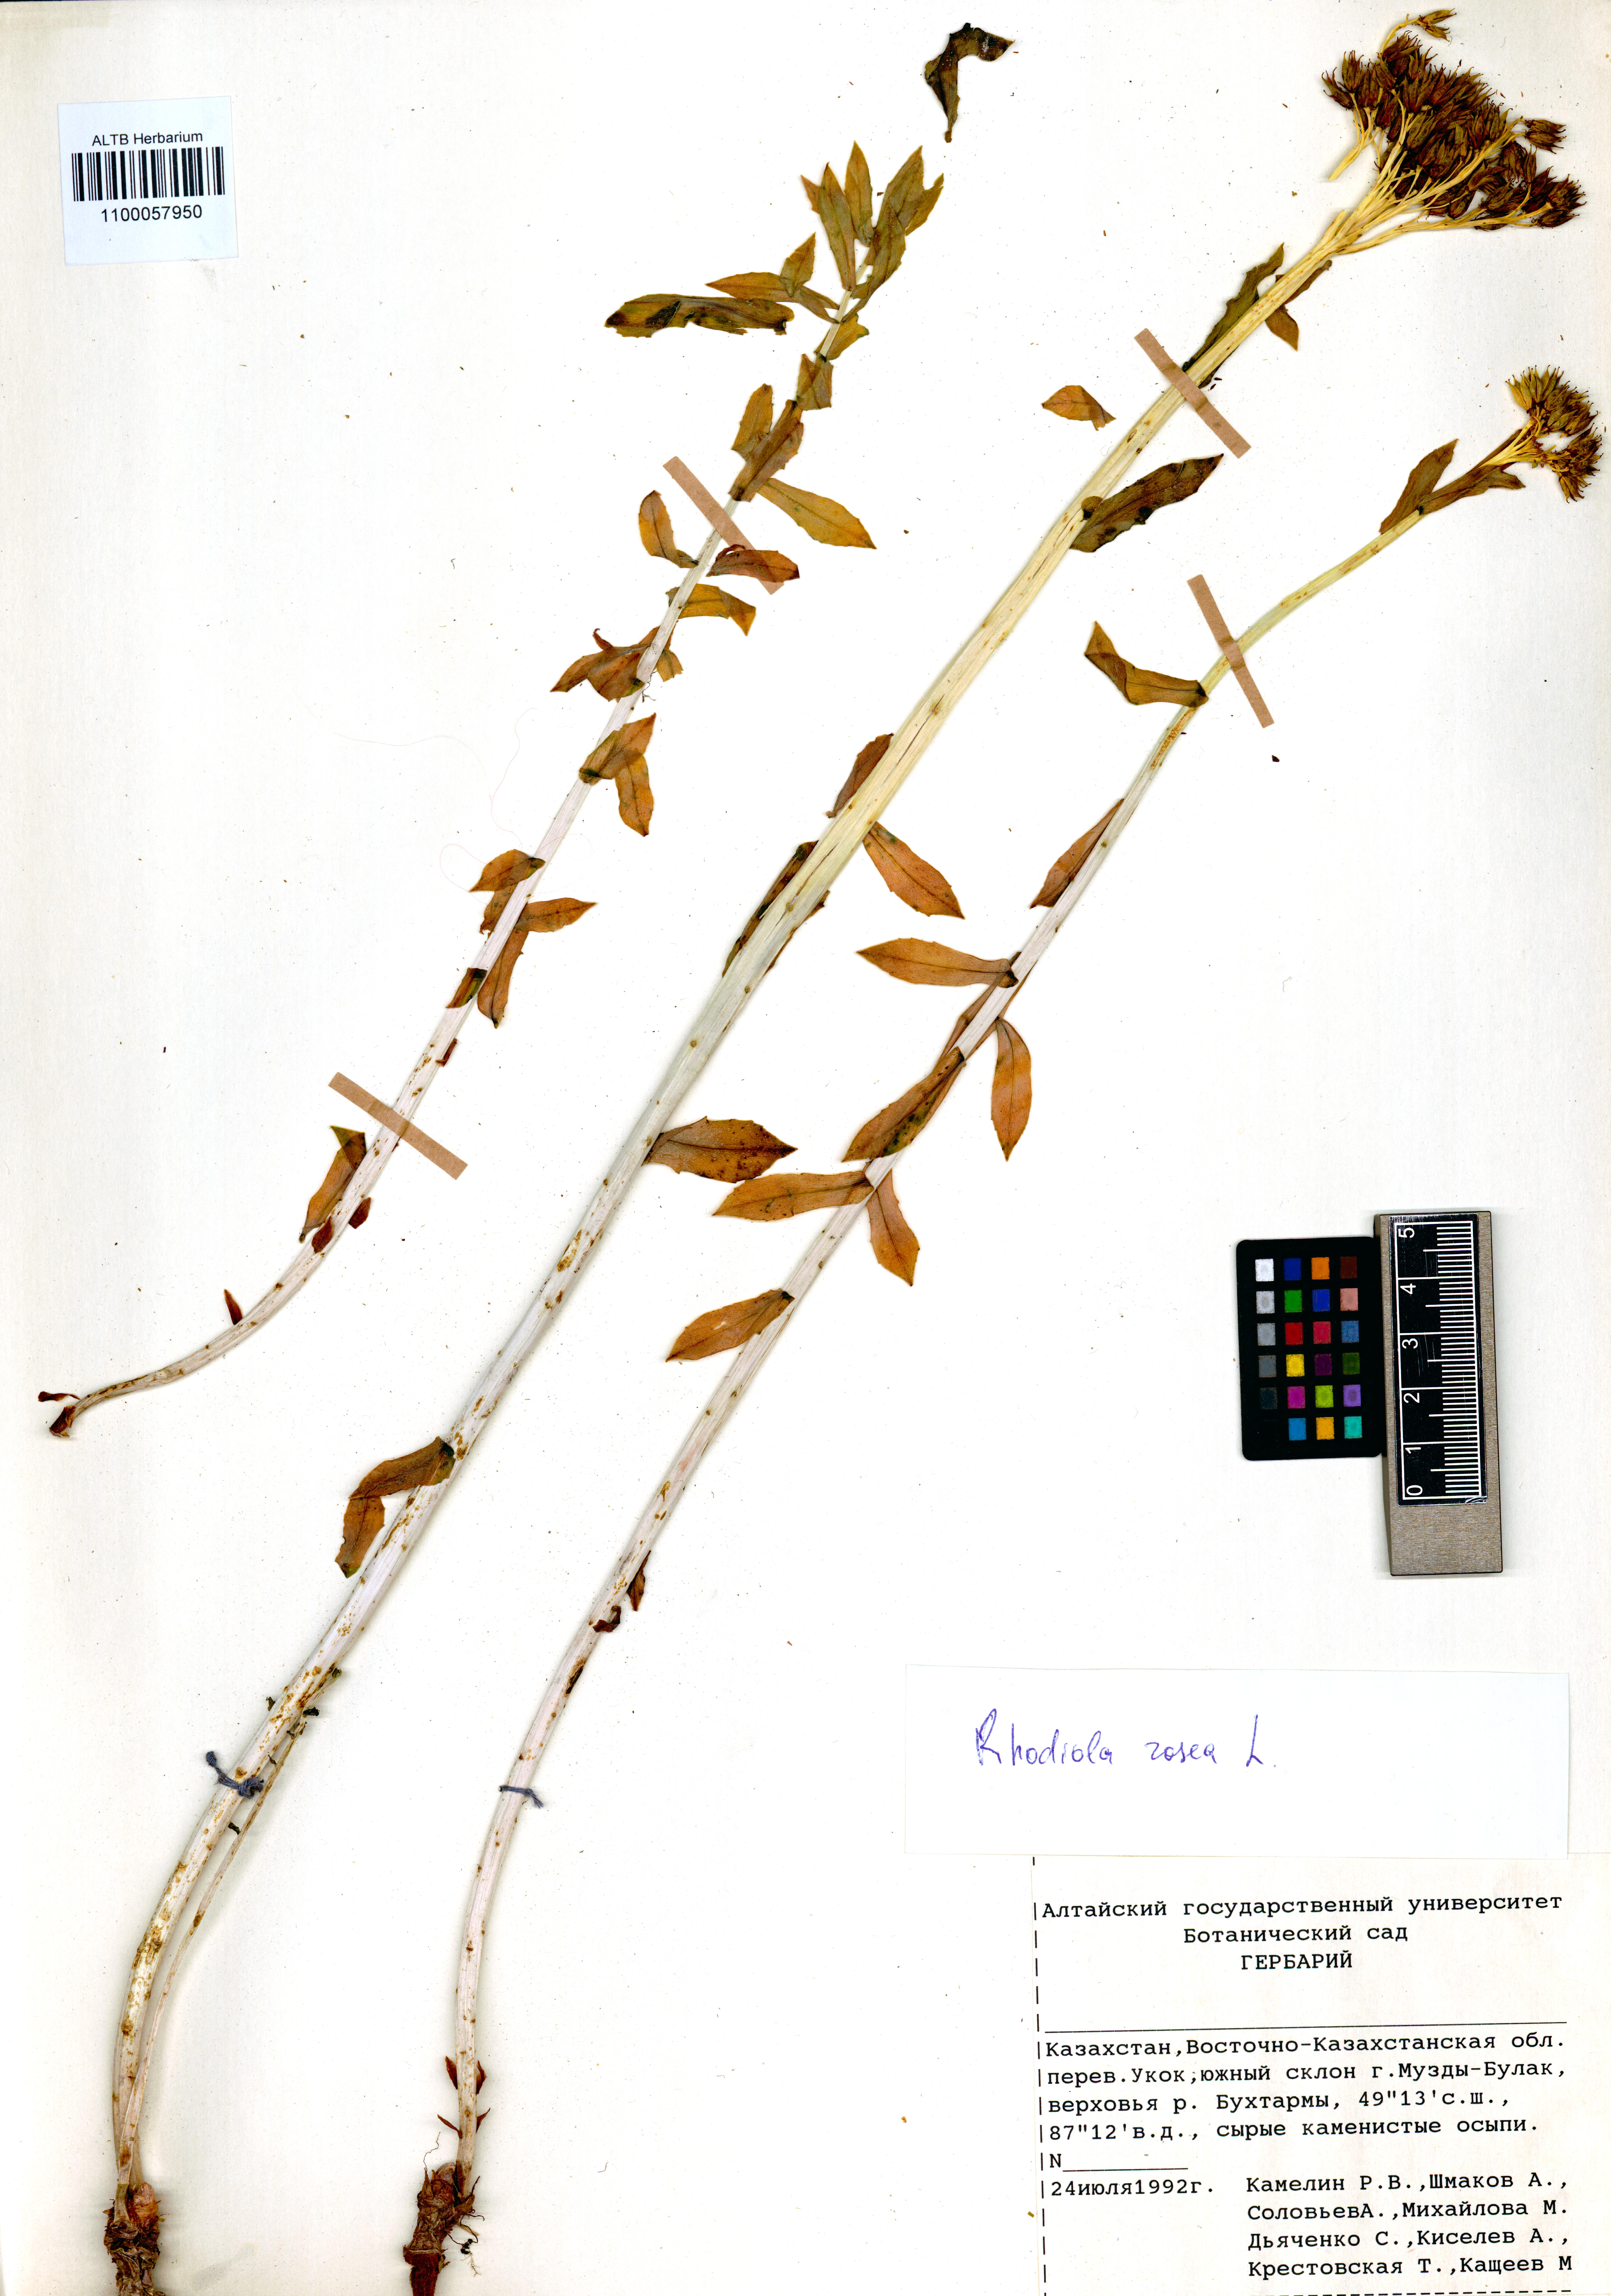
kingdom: Plantae
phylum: Tracheophyta
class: Magnoliopsida
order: Saxifragales
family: Crassulaceae
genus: Rhodiola
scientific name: Rhodiola rosea
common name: Roseroot
